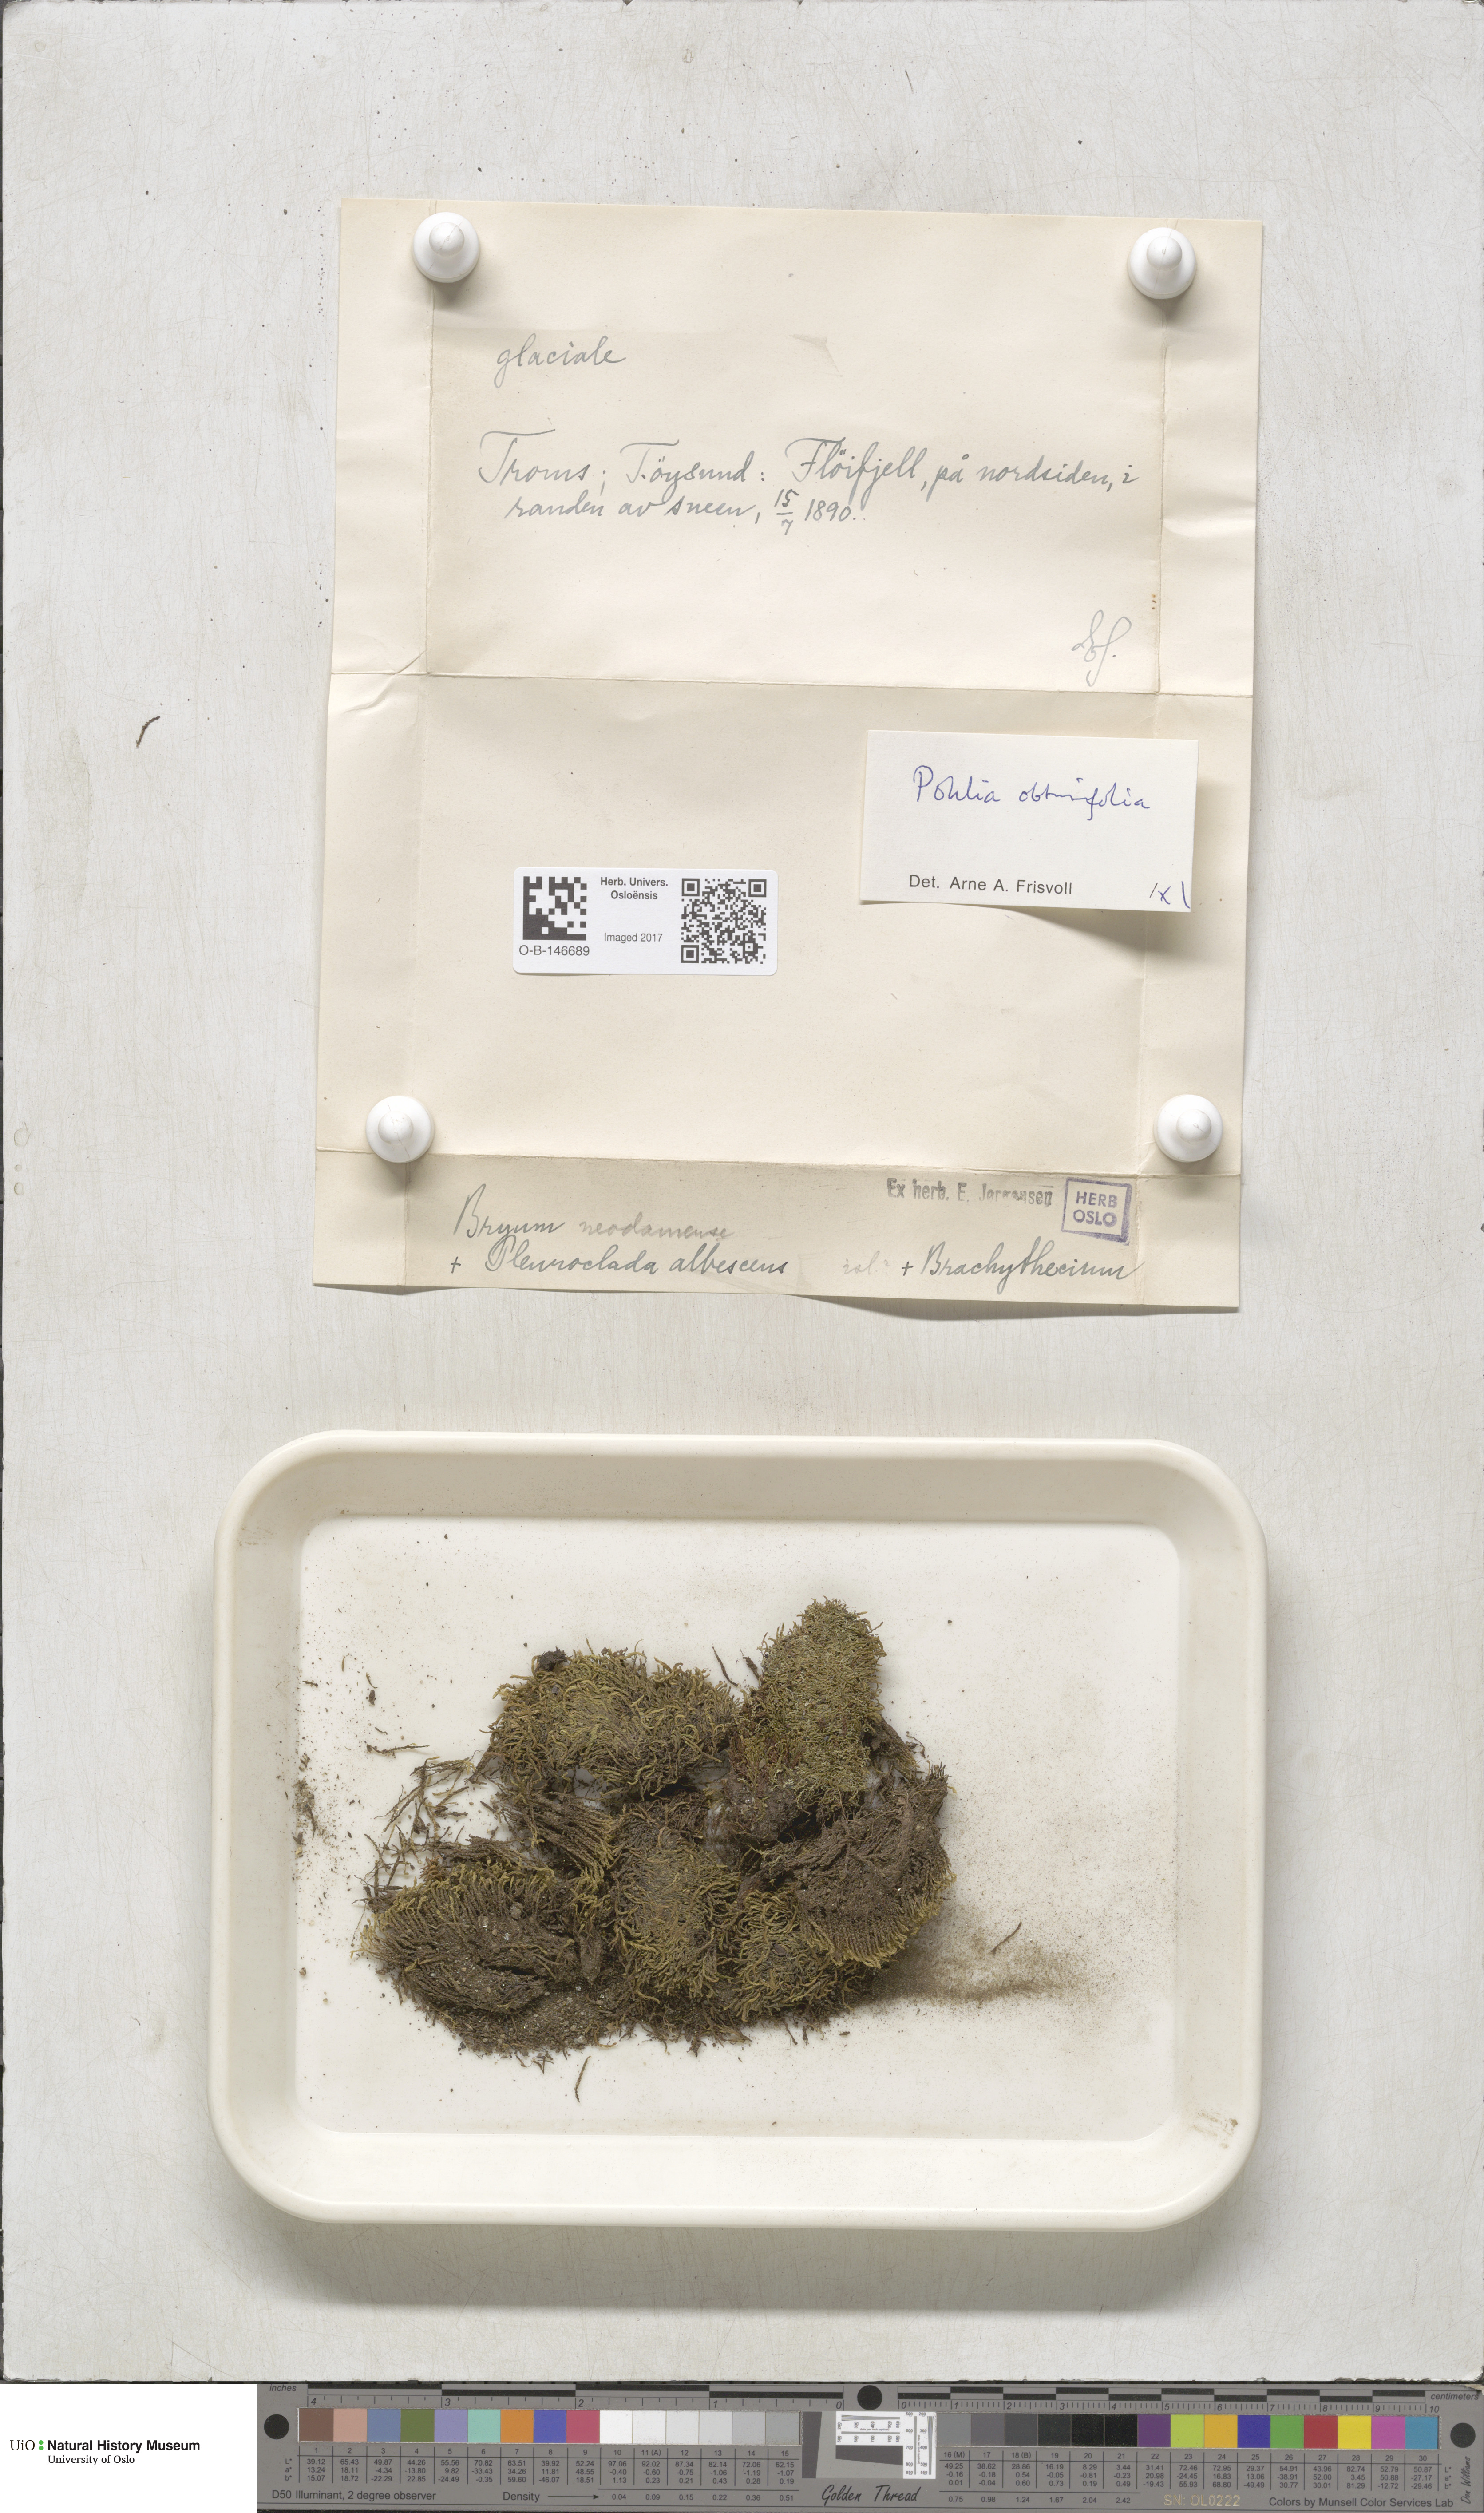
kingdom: Plantae
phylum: Bryophyta
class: Bryopsida
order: Bryales
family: Mniaceae
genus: Pohlia
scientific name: Pohlia obtusifolia
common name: Blunt nodding moss
